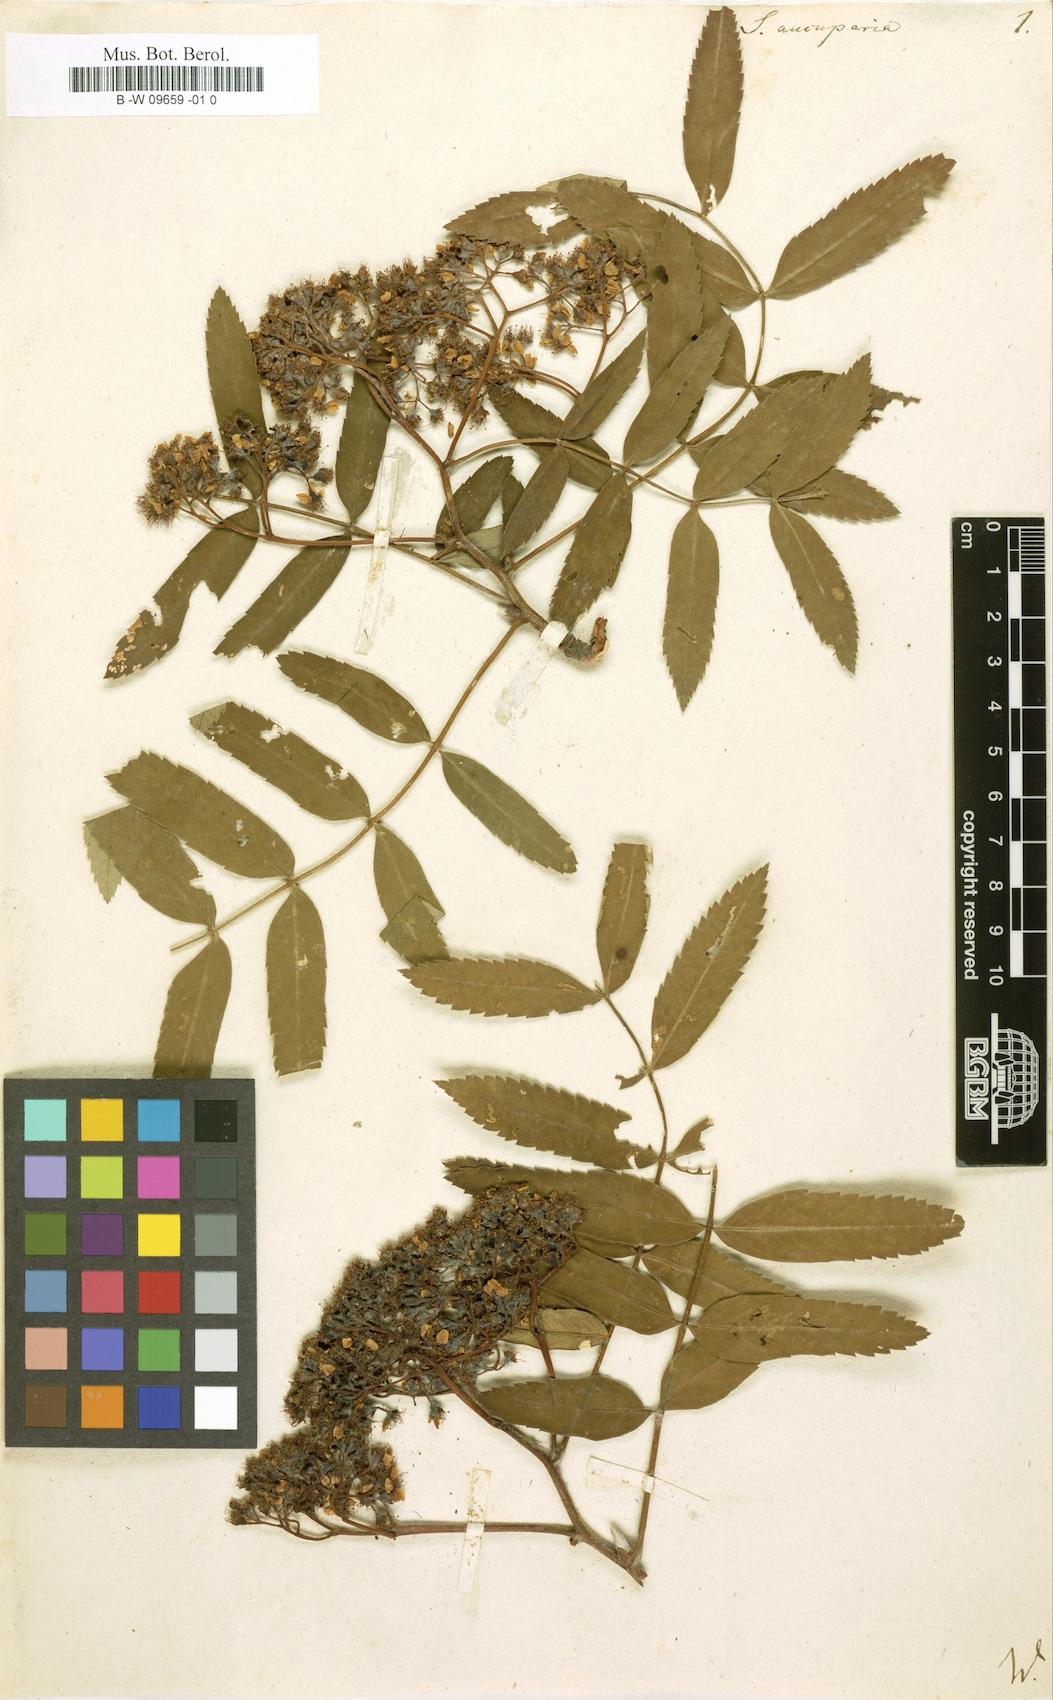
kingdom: Plantae
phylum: Tracheophyta
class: Magnoliopsida
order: Rosales
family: Rosaceae
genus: Sorbus
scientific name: Sorbus aucuparia
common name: Rowan
